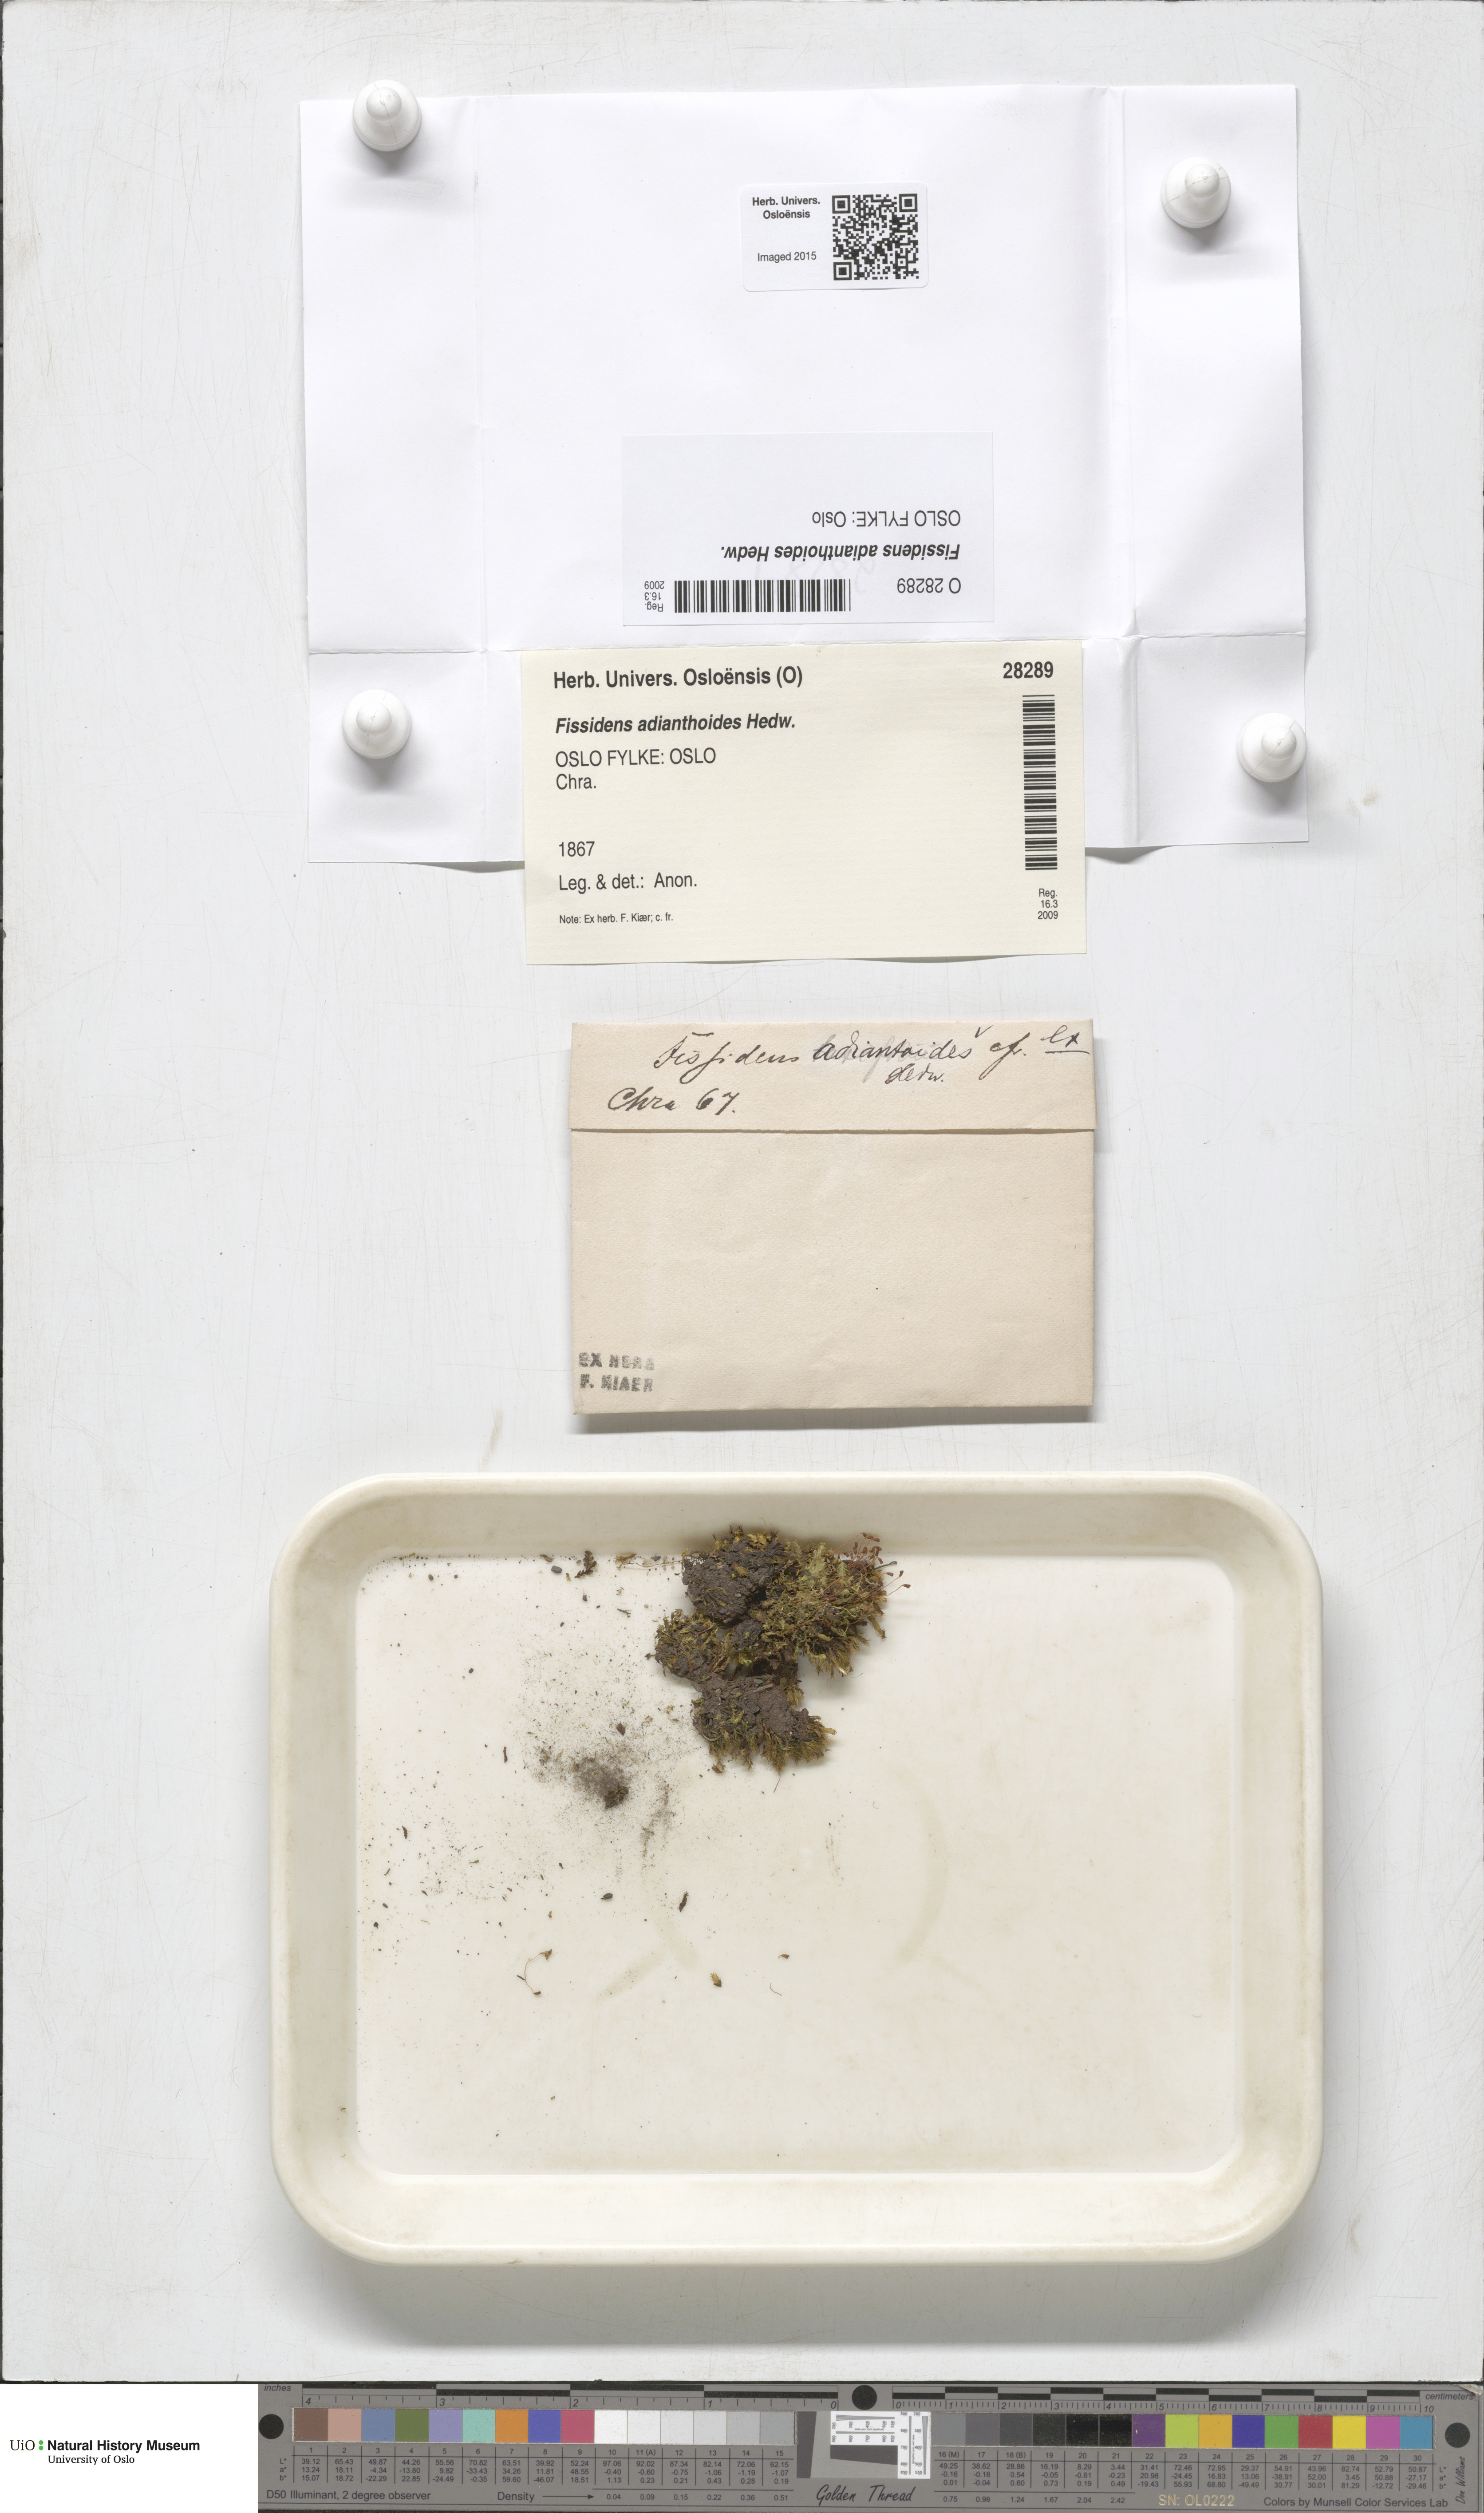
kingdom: Plantae
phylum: Bryophyta
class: Bryopsida
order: Dicranales
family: Fissidentaceae
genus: Fissidens
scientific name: Fissidens adianthoides
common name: Maidenhair pocket moss
